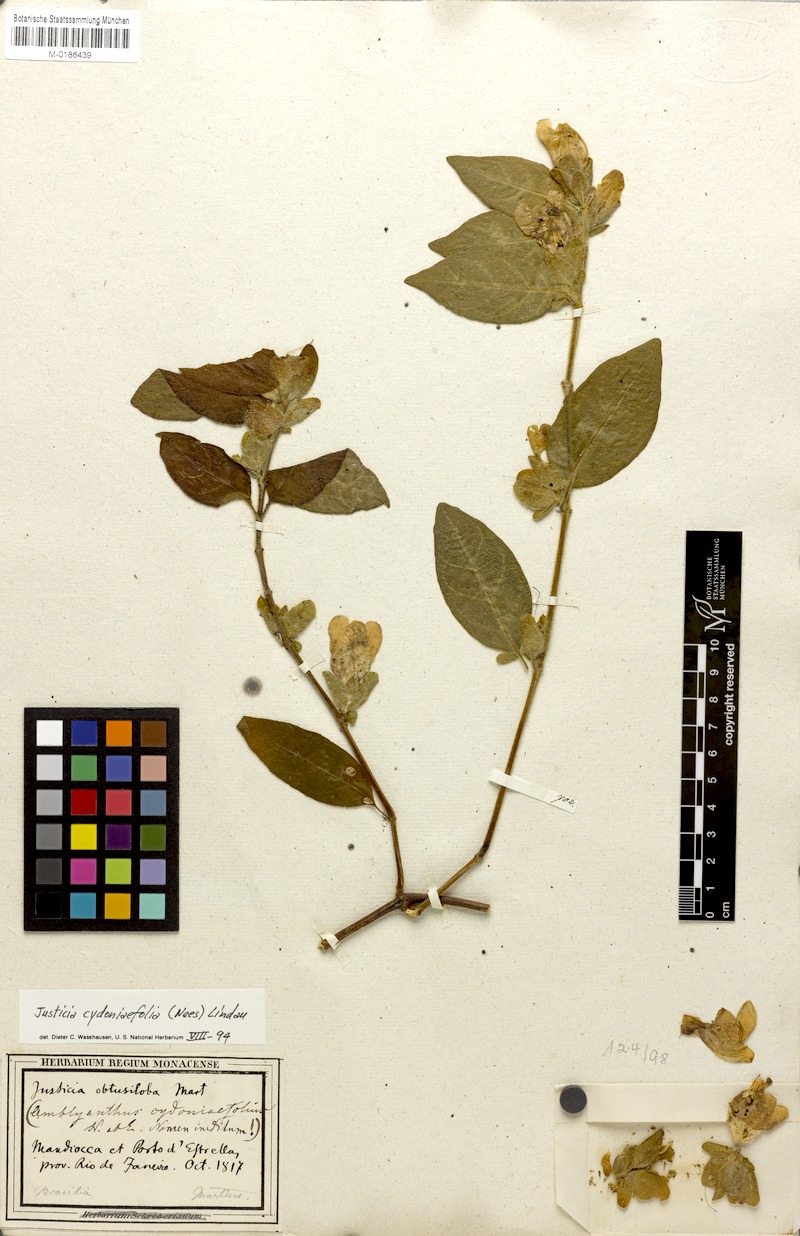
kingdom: Plantae
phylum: Tracheophyta
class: Magnoliopsida
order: Lamiales
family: Acanthaceae
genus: Justicia
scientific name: Justicia cydoniifolia
